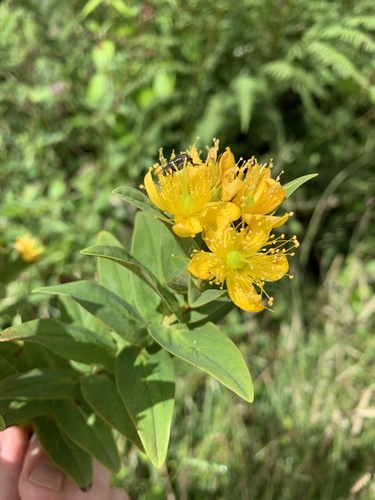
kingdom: Plantae
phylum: Tracheophyta
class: Magnoliopsida
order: Malpighiales
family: Hypericaceae
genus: Hypericum
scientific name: Hypericum foliosum
